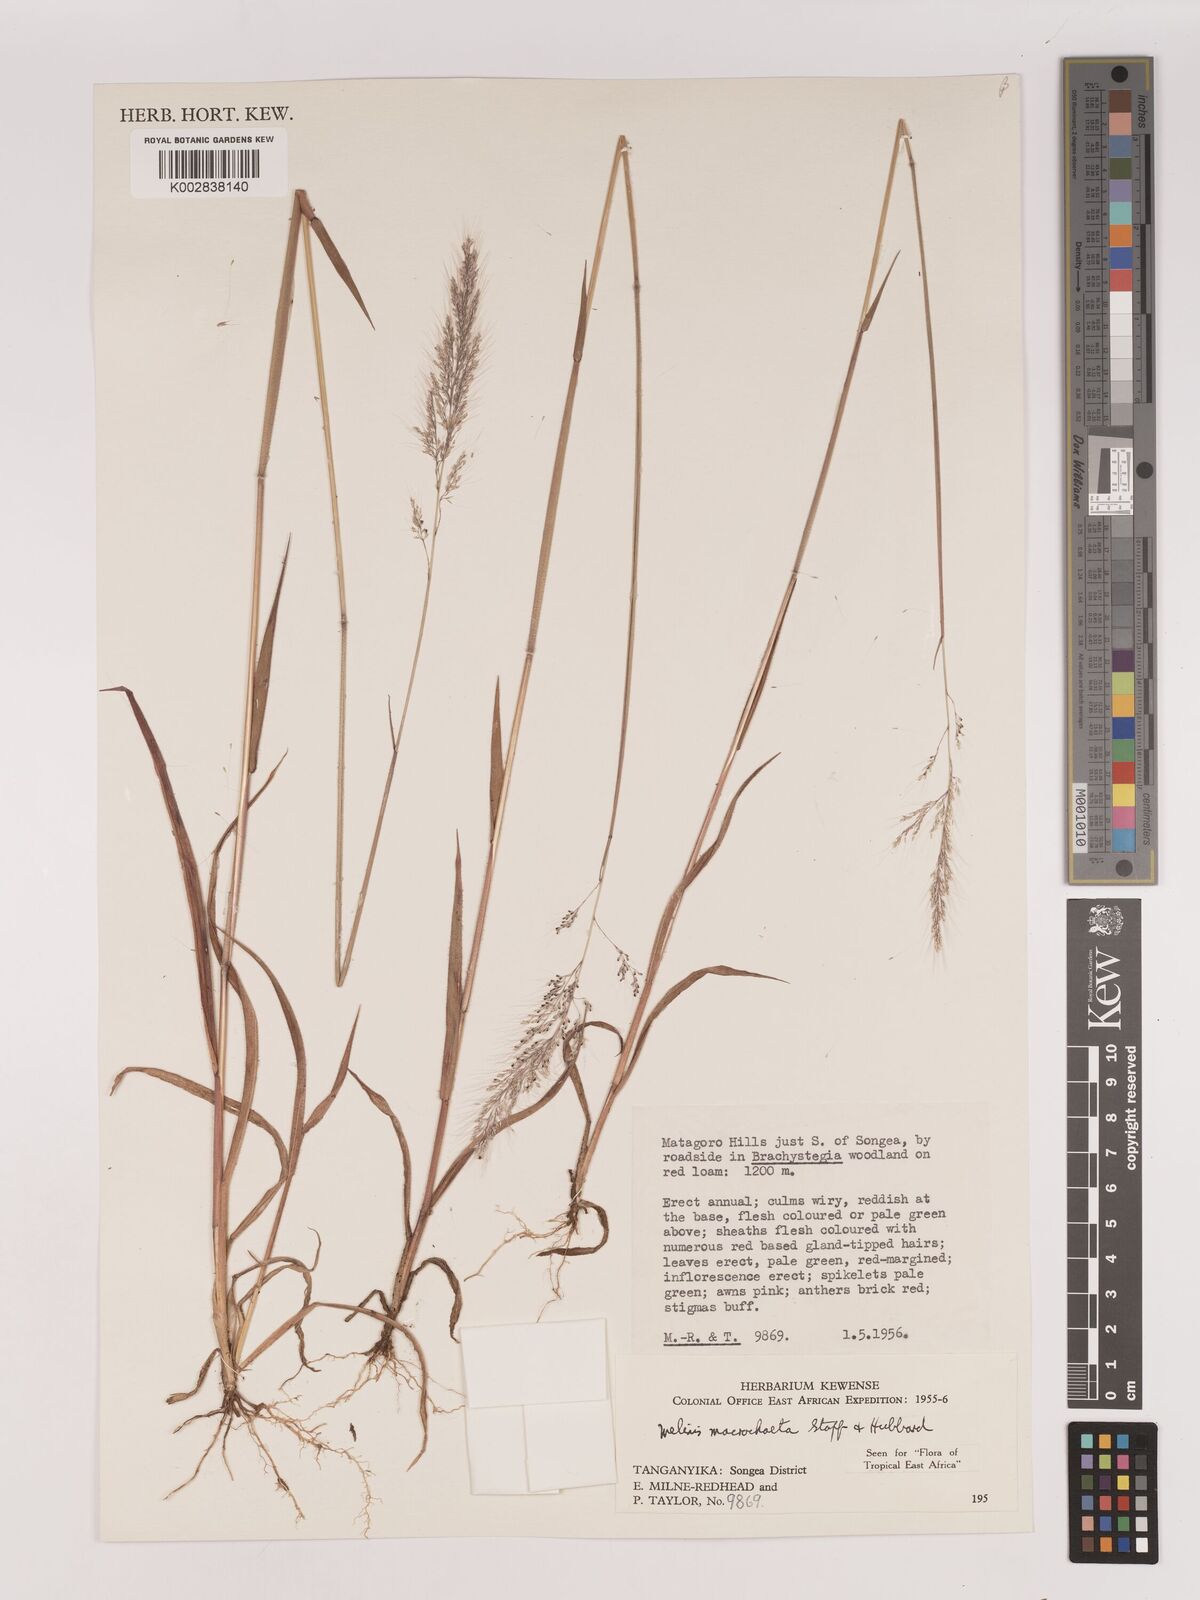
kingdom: Plantae
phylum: Tracheophyta
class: Liliopsida
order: Poales
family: Poaceae
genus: Melinis
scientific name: Melinis macrochaeta
